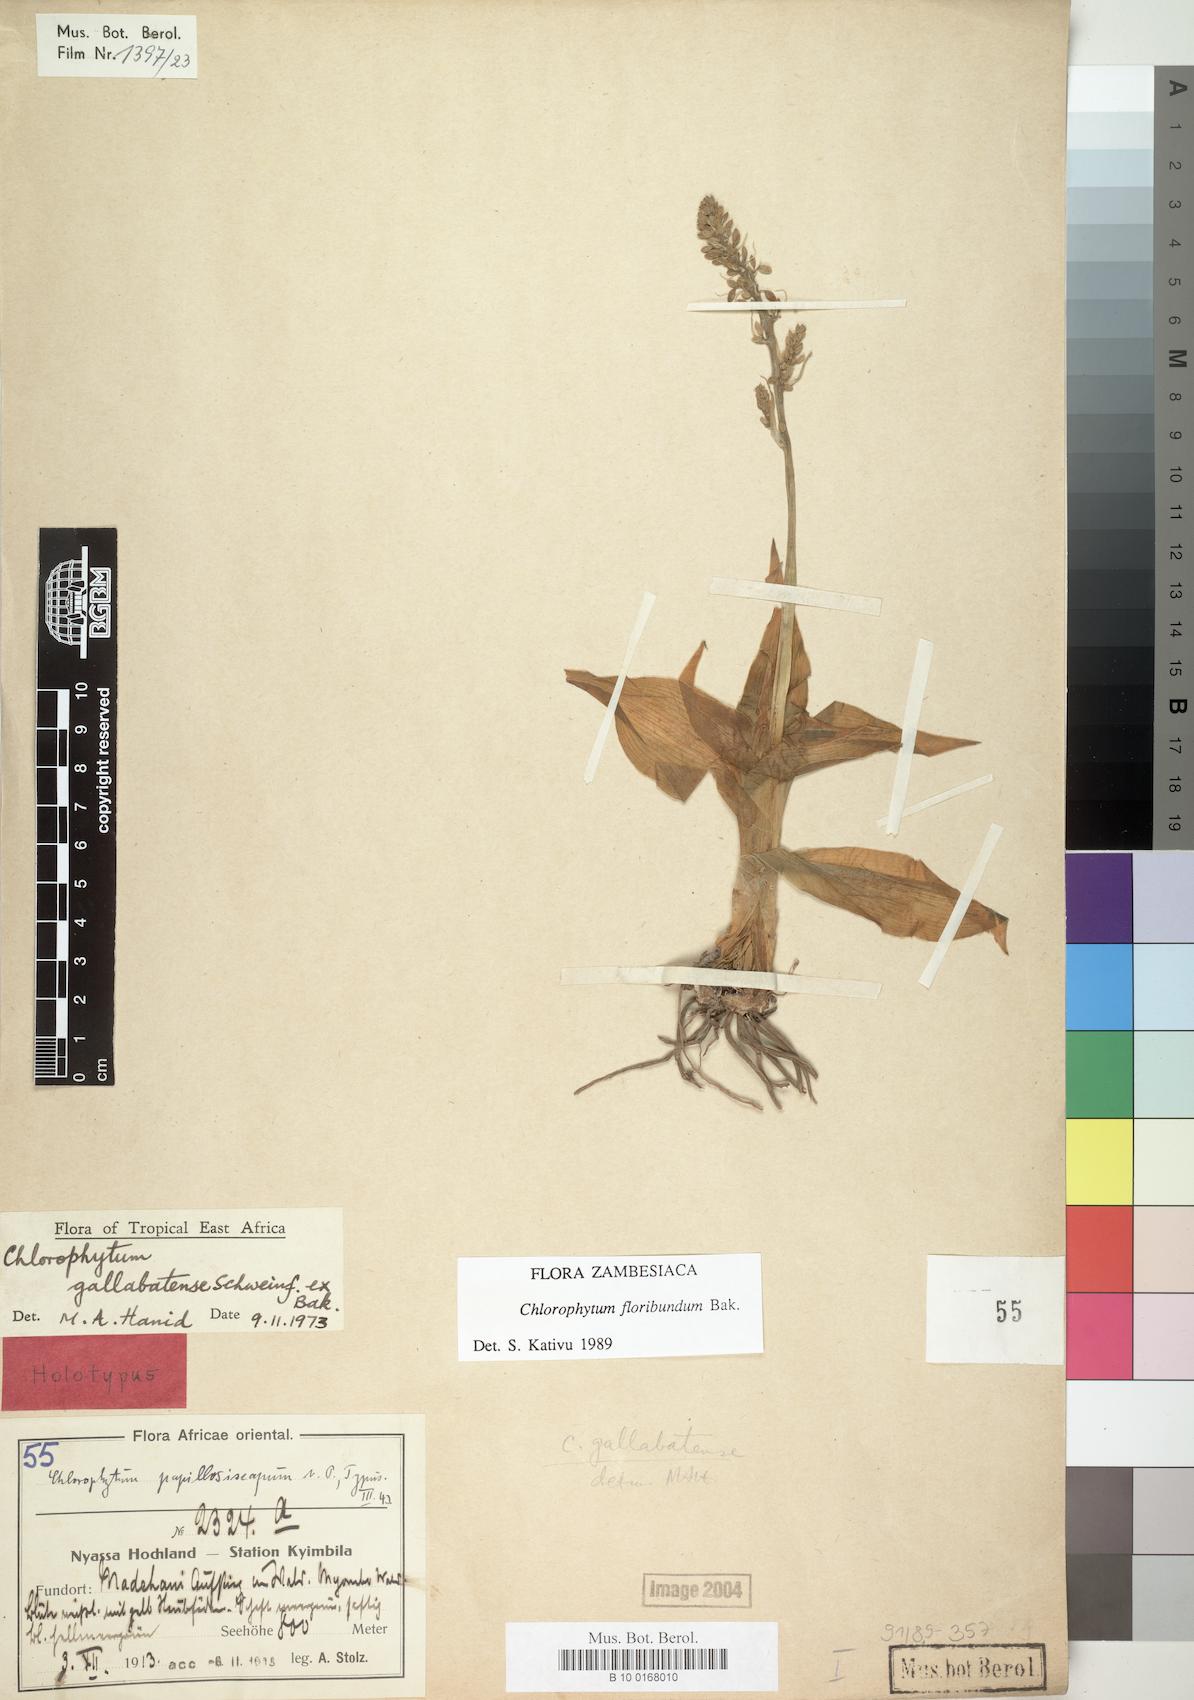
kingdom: Plantae
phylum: Tracheophyta
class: Liliopsida
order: Asparagales
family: Asparagaceae
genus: Chlorophytum
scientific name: Chlorophytum gallabatense
